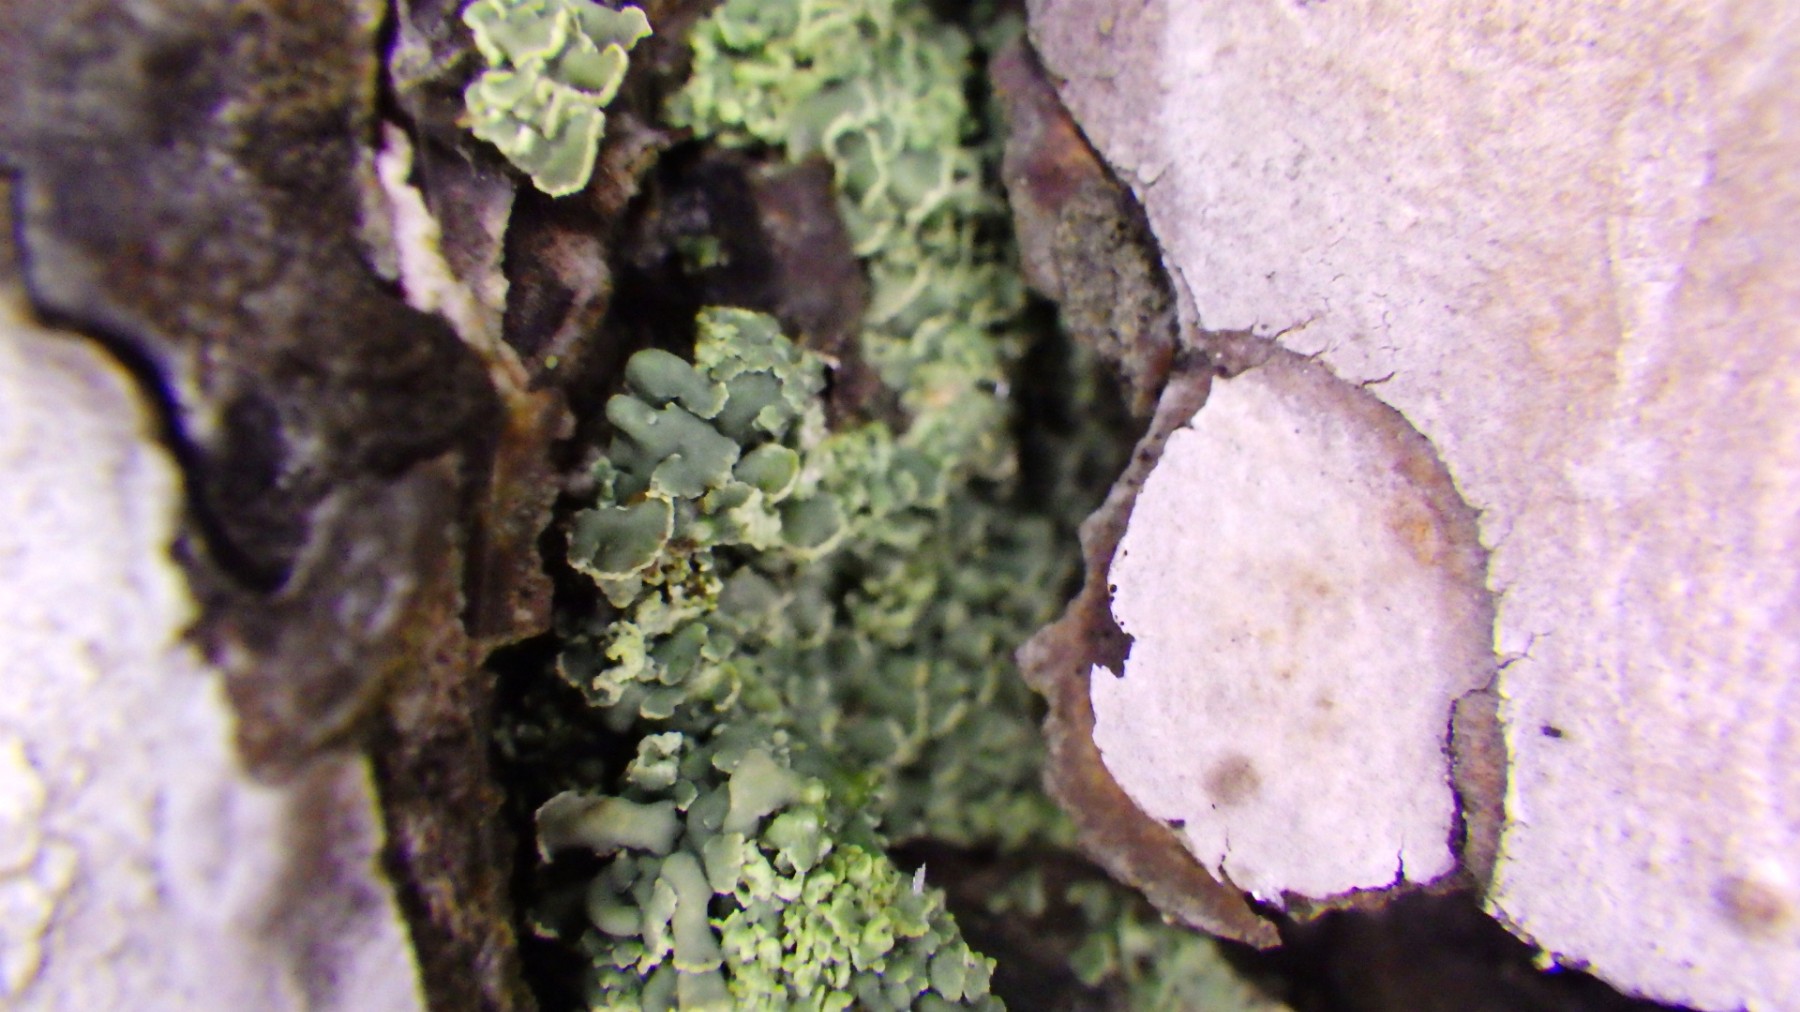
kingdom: Fungi
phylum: Ascomycota
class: Lecanoromycetes
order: Umbilicariales
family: Ophioparmaceae
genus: Hypocenomyce
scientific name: Hypocenomyce scalaris
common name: småskællet muslinglav
